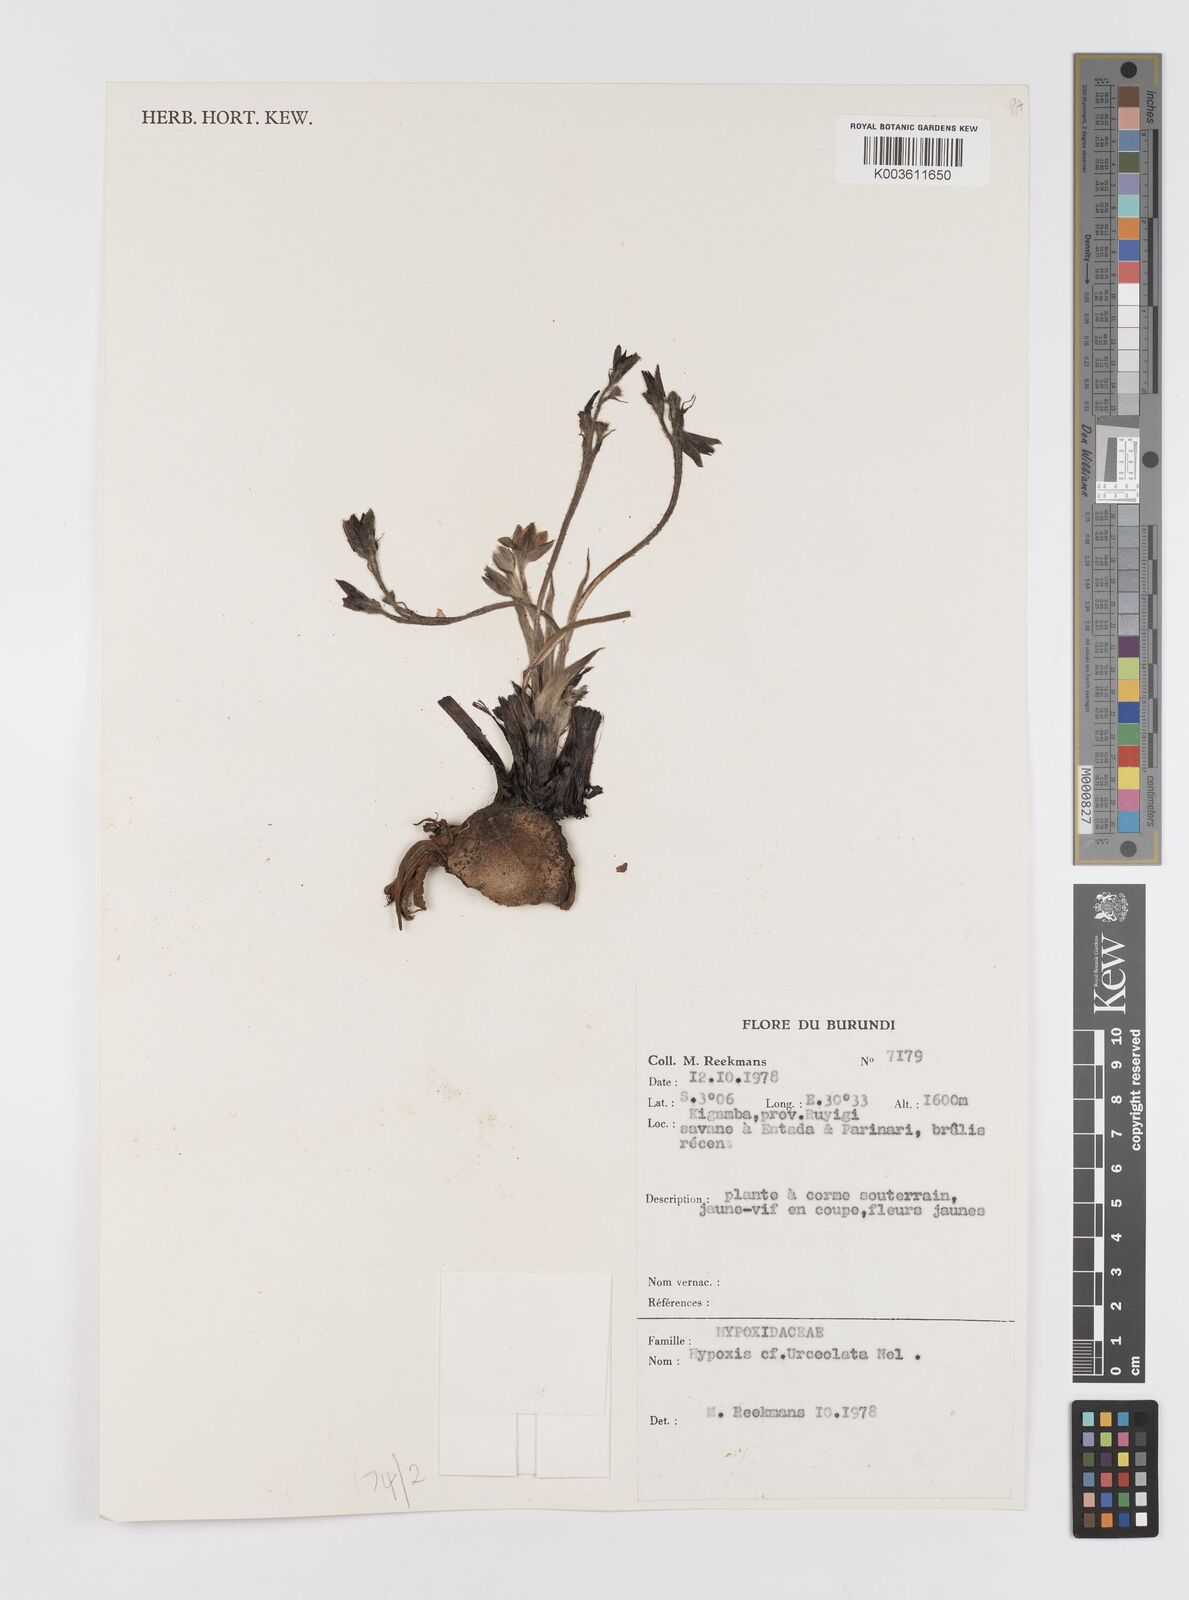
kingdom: Plantae
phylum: Tracheophyta
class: Liliopsida
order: Asparagales
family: Hypoxidaceae
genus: Hypoxis
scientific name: Hypoxis urceolata
